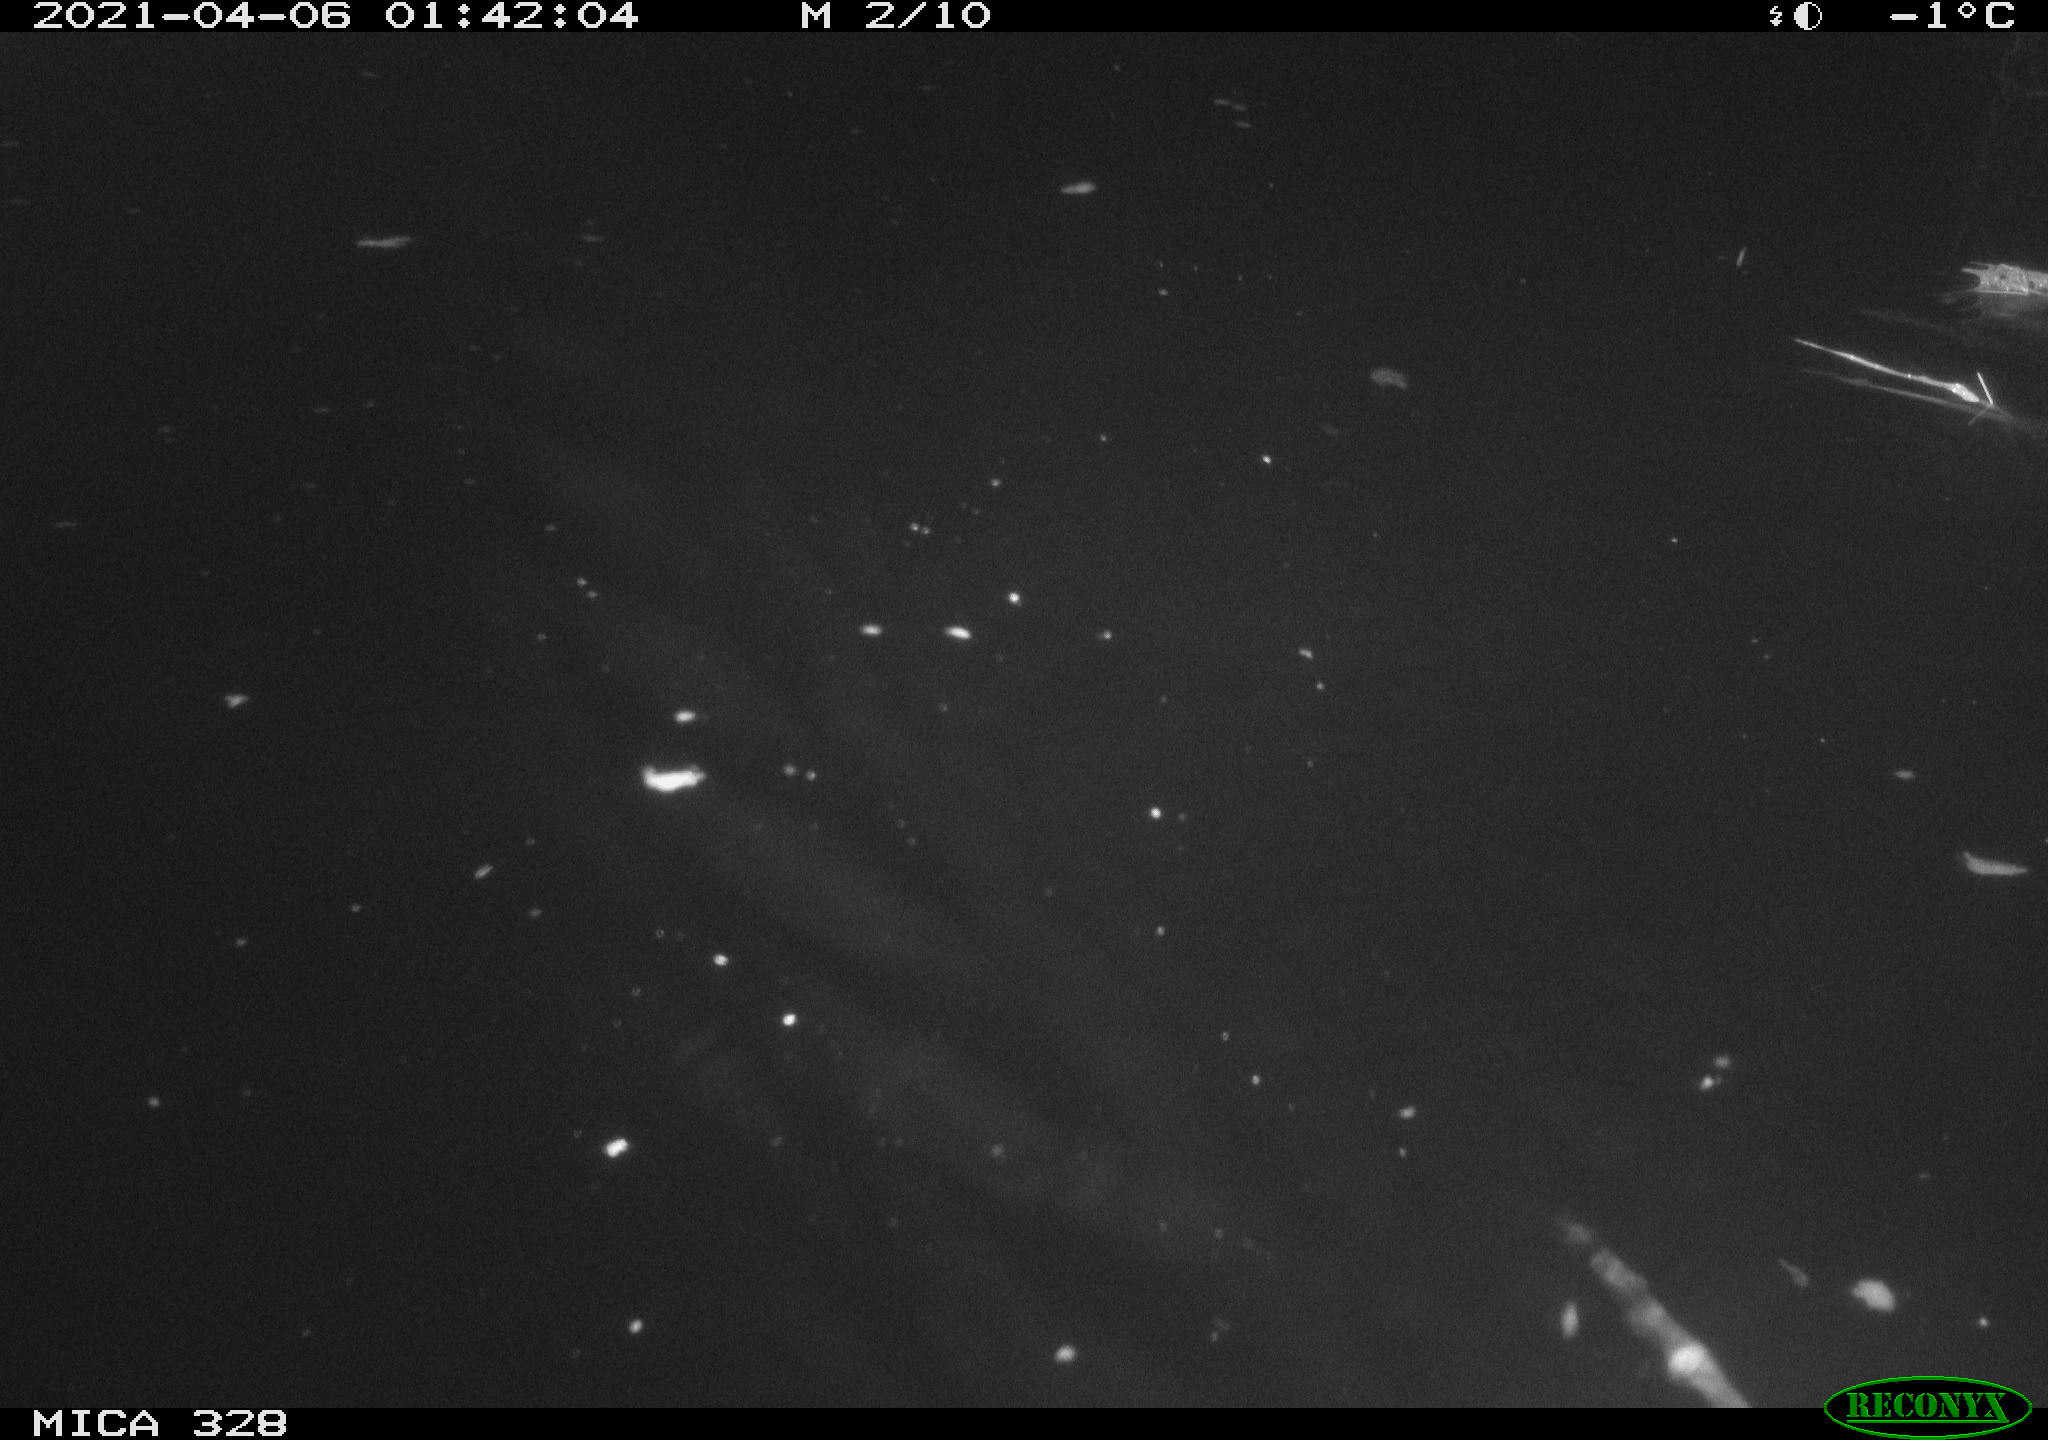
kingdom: Animalia
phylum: Chordata
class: Mammalia
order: Rodentia
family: Cricetidae
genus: Ondatra
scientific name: Ondatra zibethicus
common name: Muskrat
